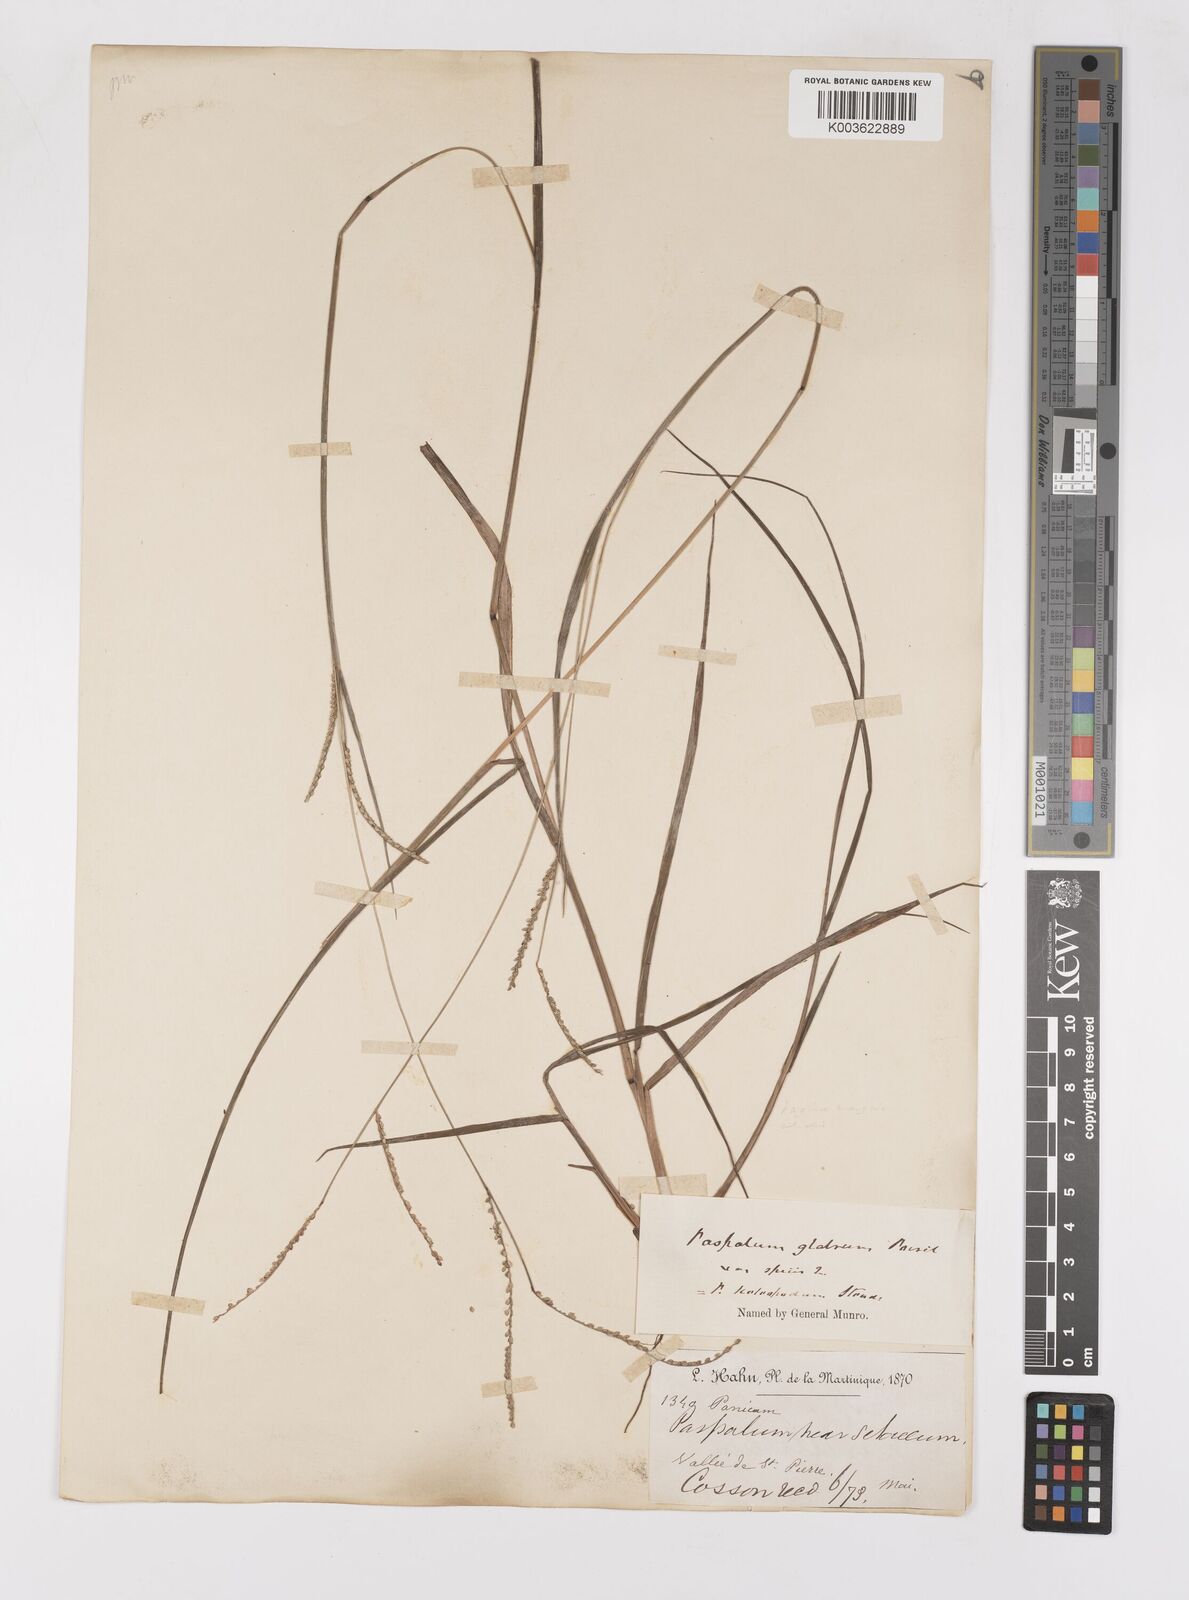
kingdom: Plantae
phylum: Tracheophyta
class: Liliopsida
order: Poales
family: Poaceae
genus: Paspalum
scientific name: Paspalum laxum
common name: Coconut paspalum
